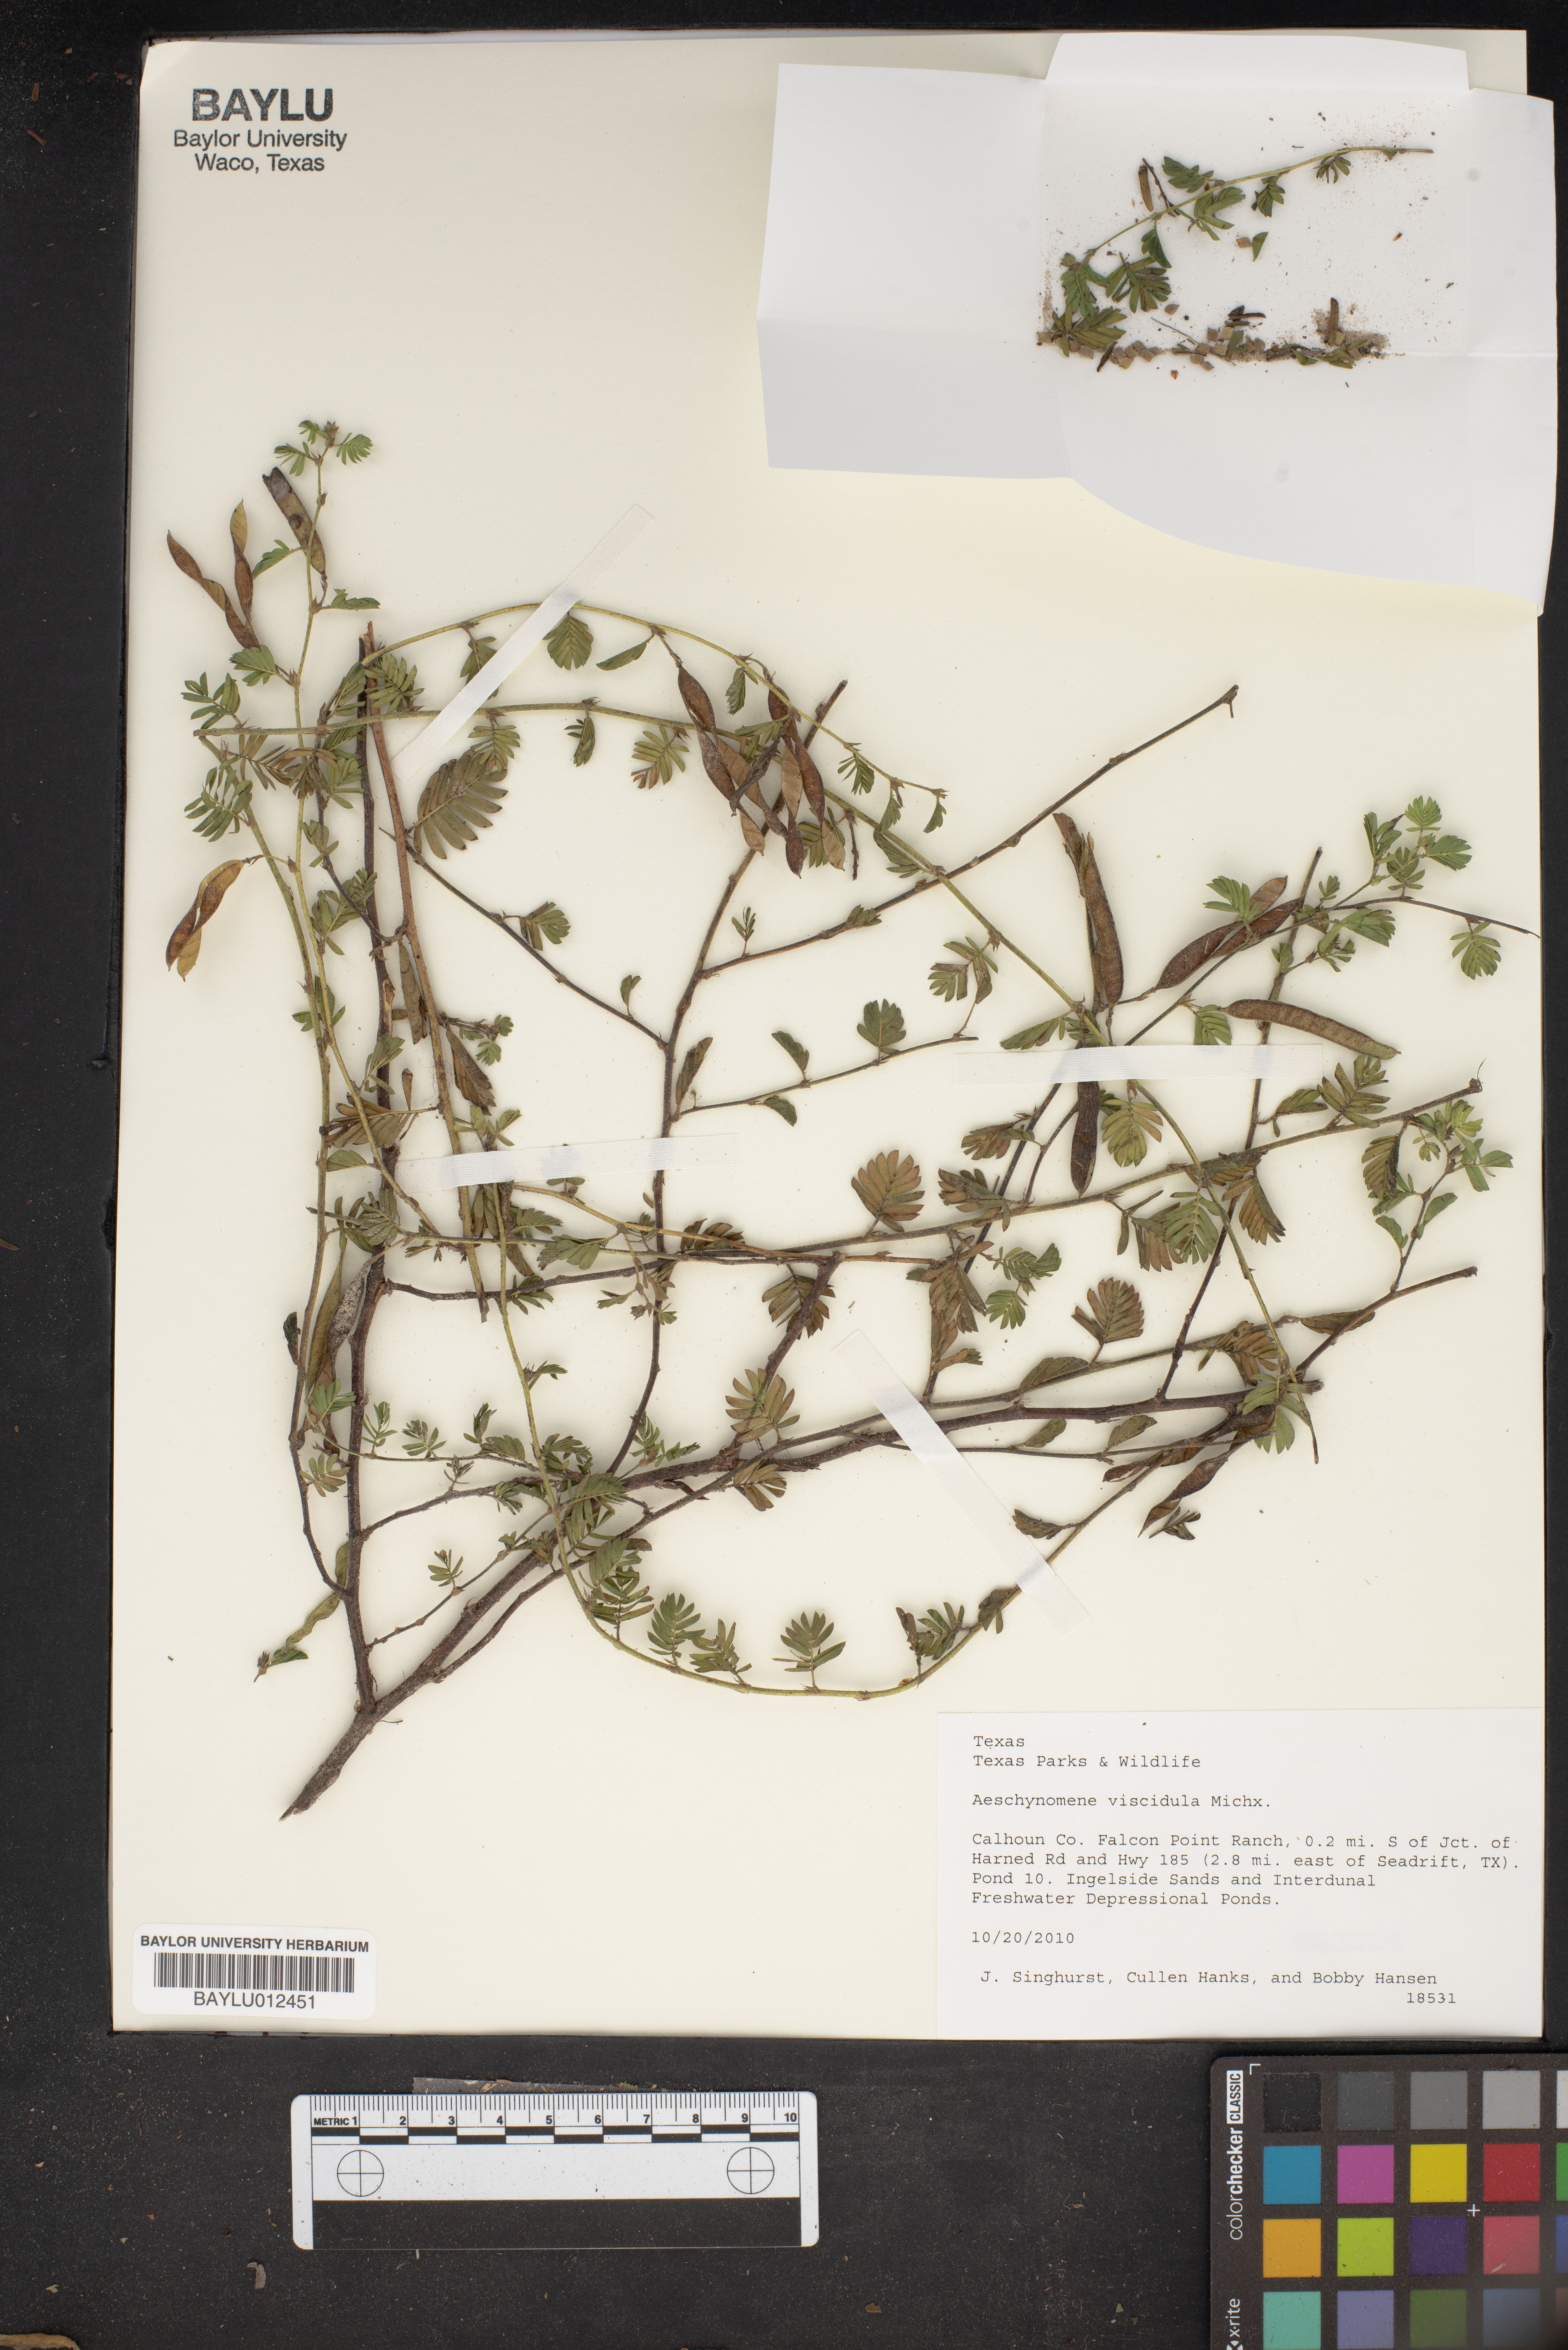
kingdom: Plantae
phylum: Tracheophyta
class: Magnoliopsida
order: Fabales
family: Fabaceae
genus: Aeschynomene
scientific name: Aeschynomene indica
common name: Indian jointvetch
